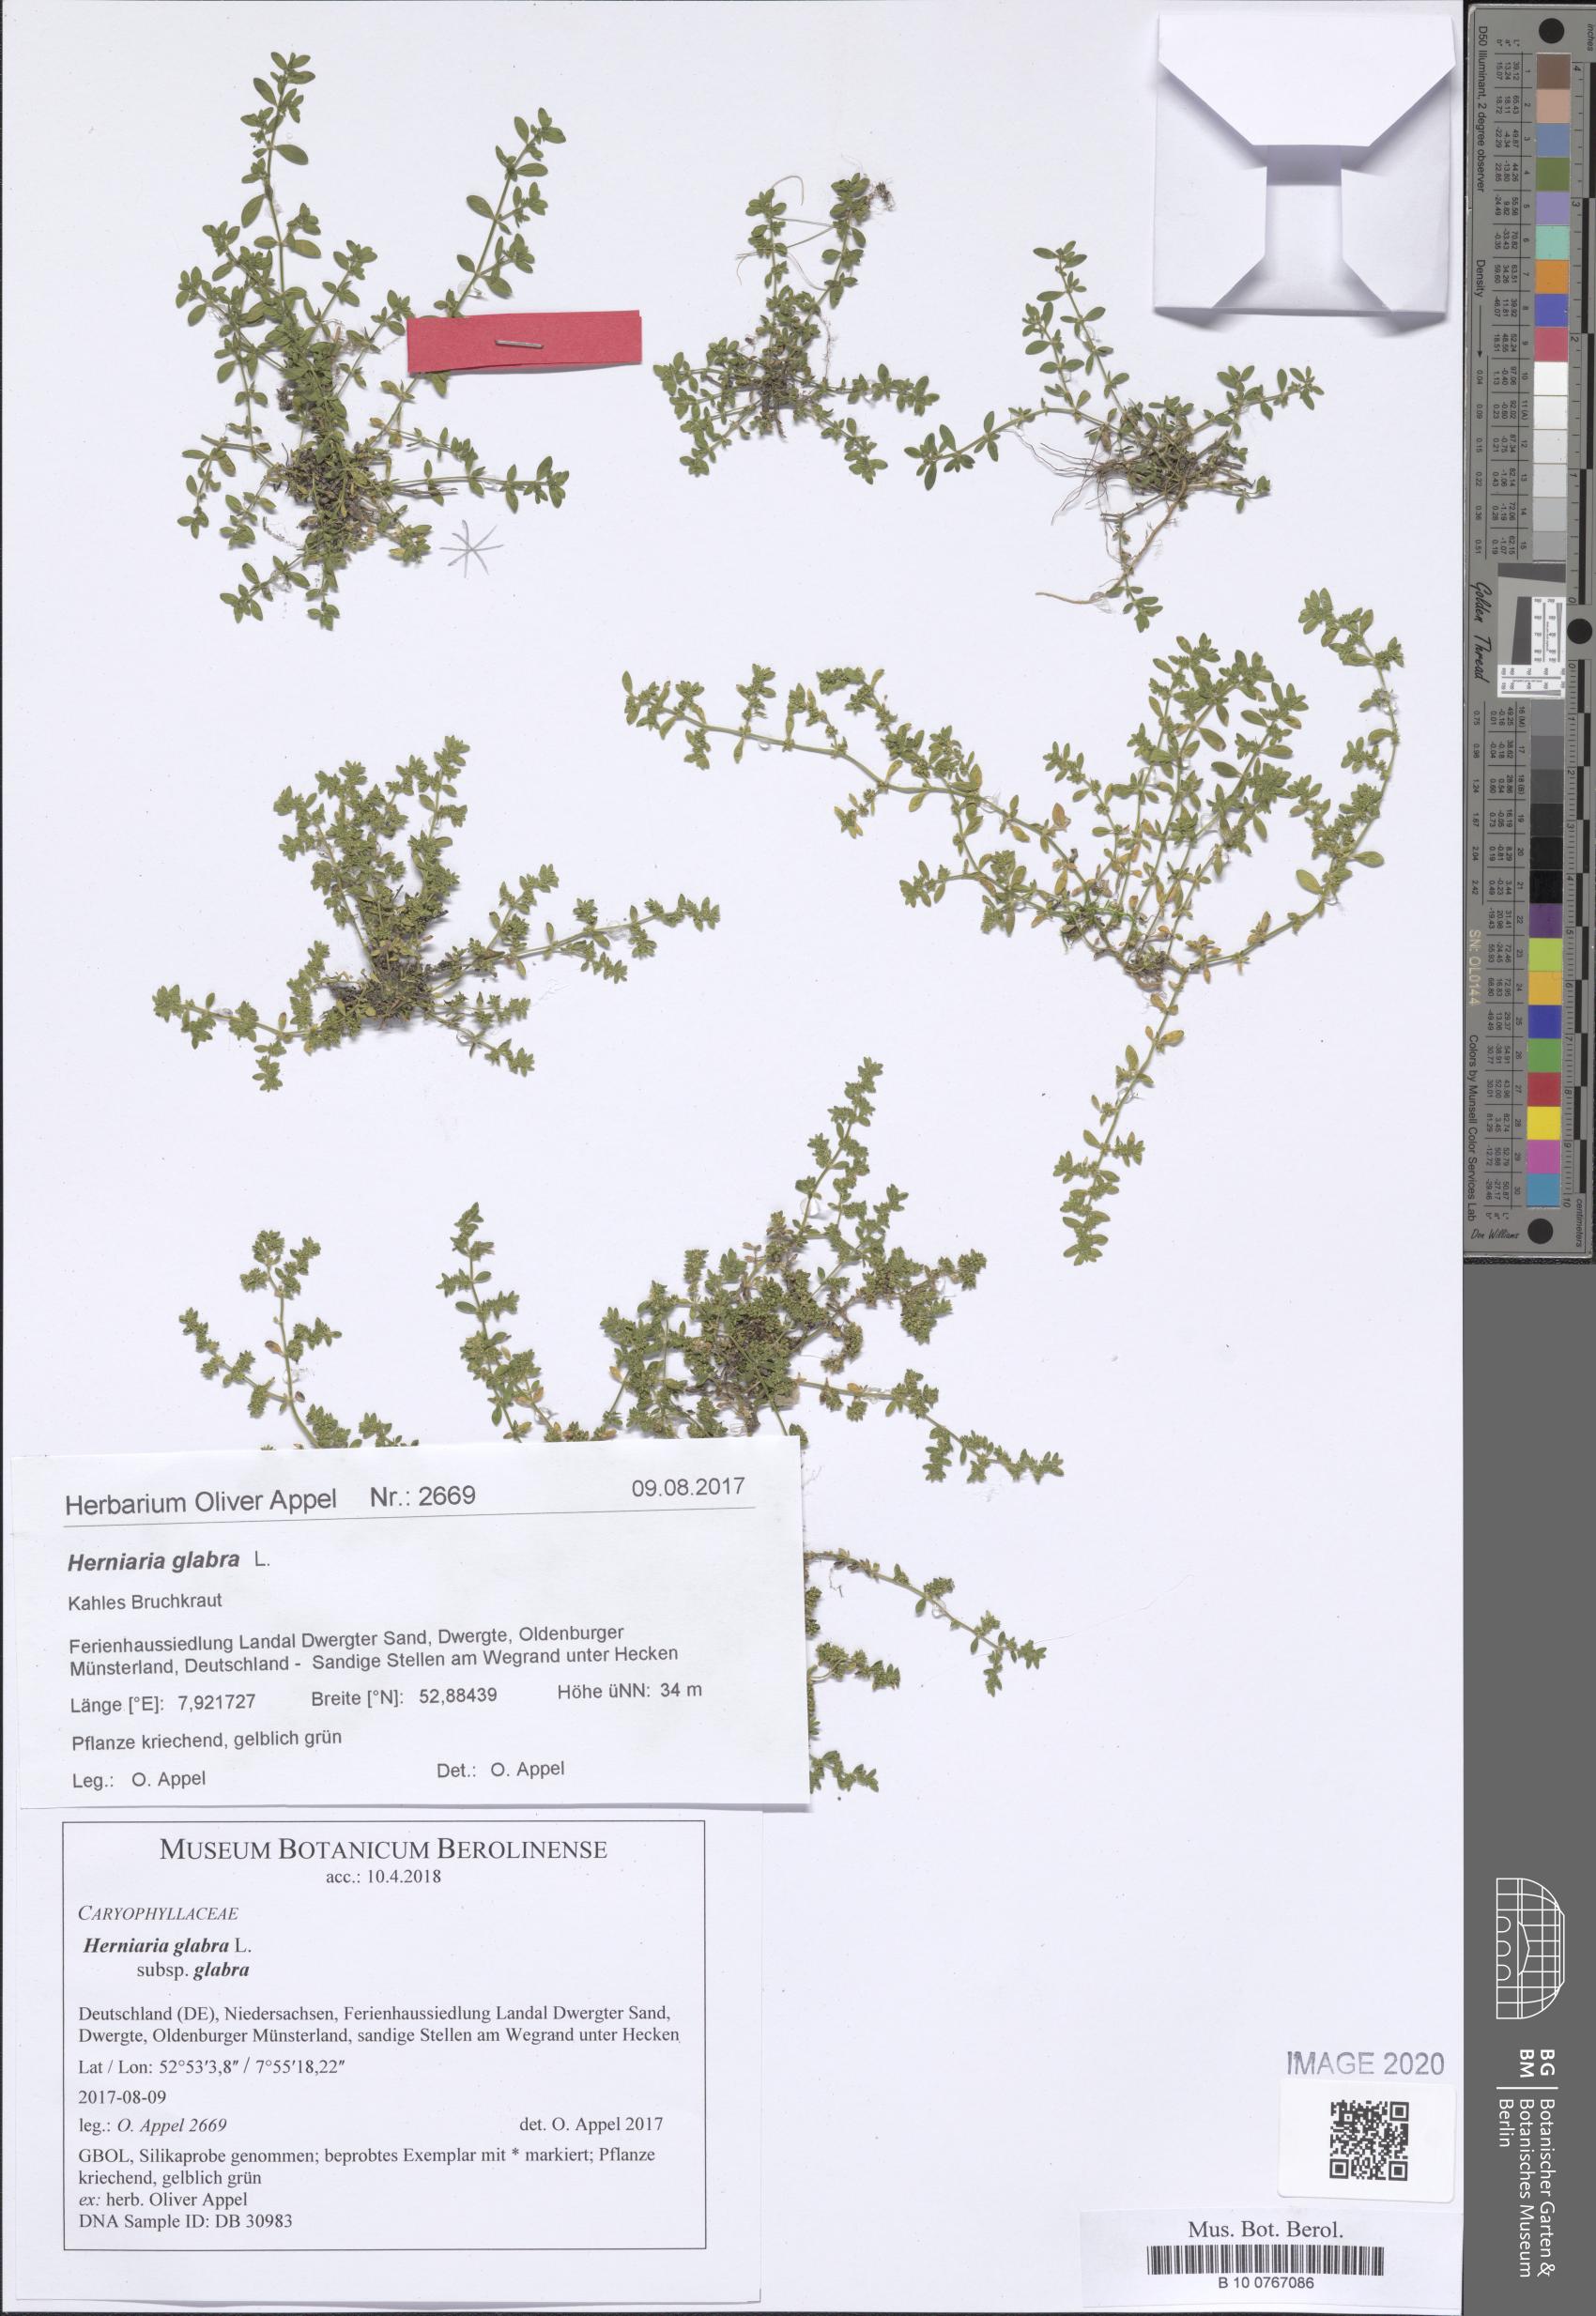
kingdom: Plantae
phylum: Tracheophyta
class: Magnoliopsida
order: Caryophyllales
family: Caryophyllaceae
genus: Herniaria
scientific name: Herniaria glabra
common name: Smooth rupturewort
